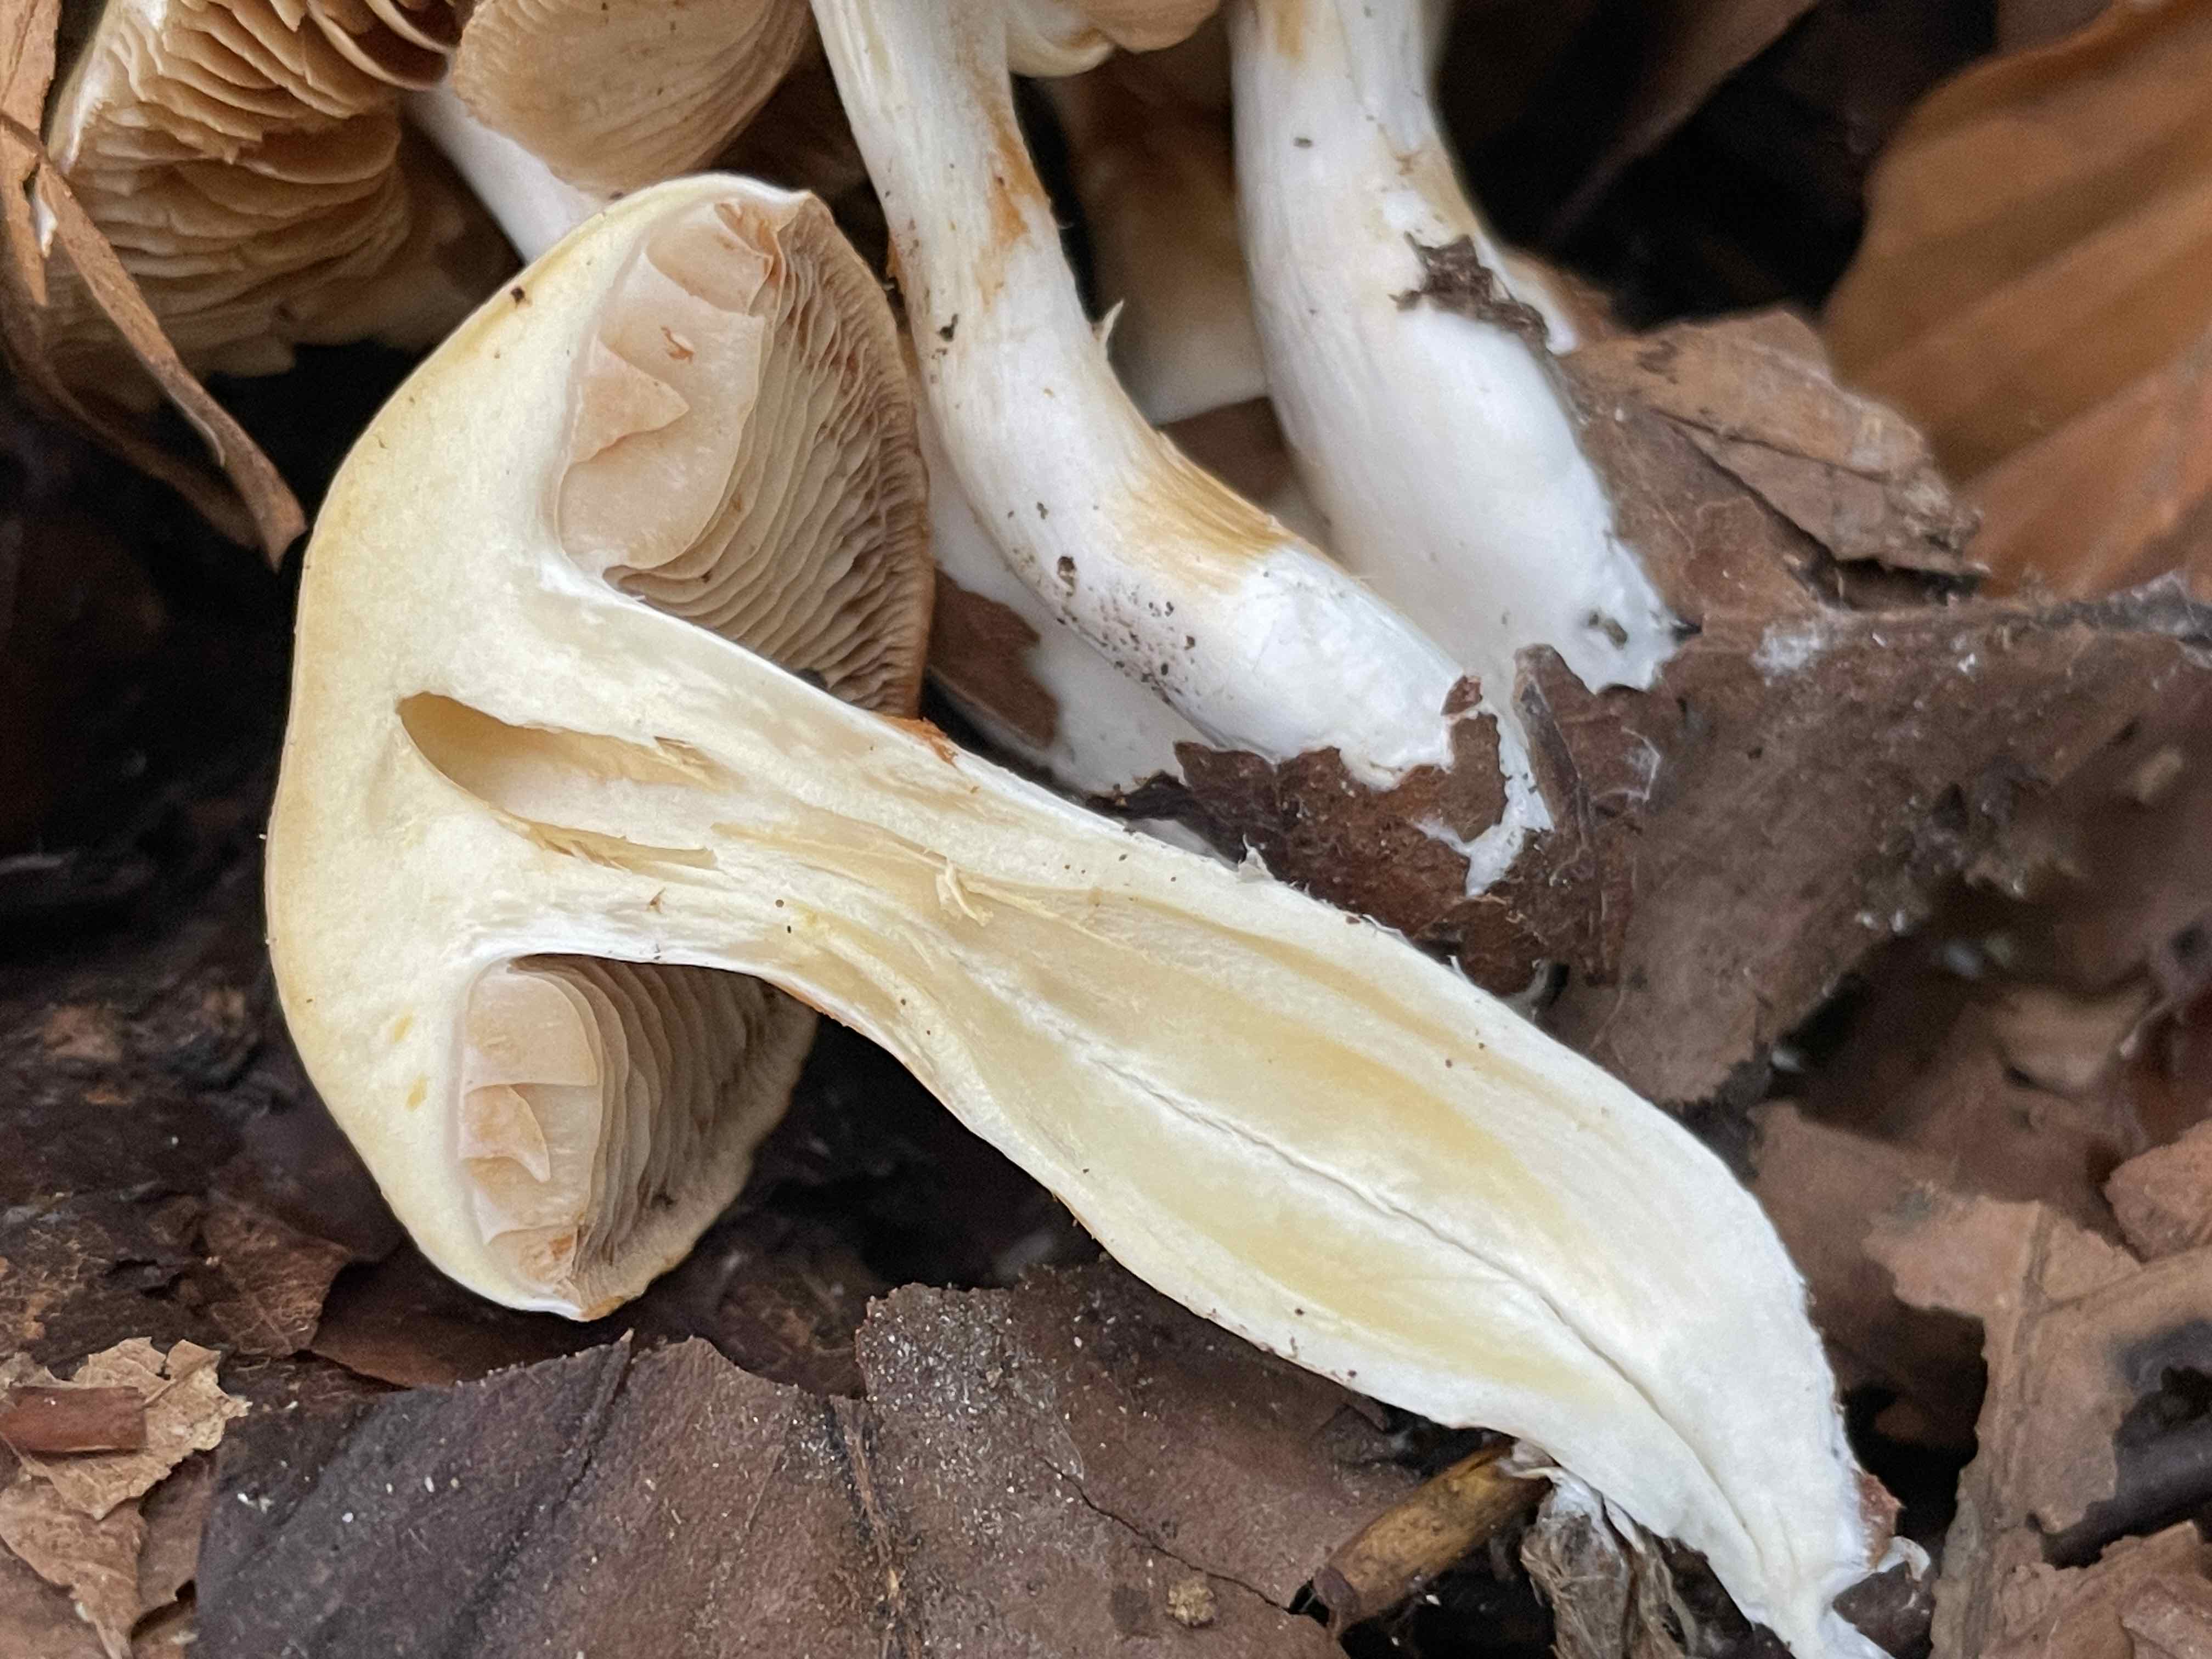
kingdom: Fungi
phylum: Basidiomycota
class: Agaricomycetes
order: Agaricales
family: Cortinariaceae
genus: Thaxterogaster
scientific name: Thaxterogaster leucoluteolus
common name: isabella slørhat
